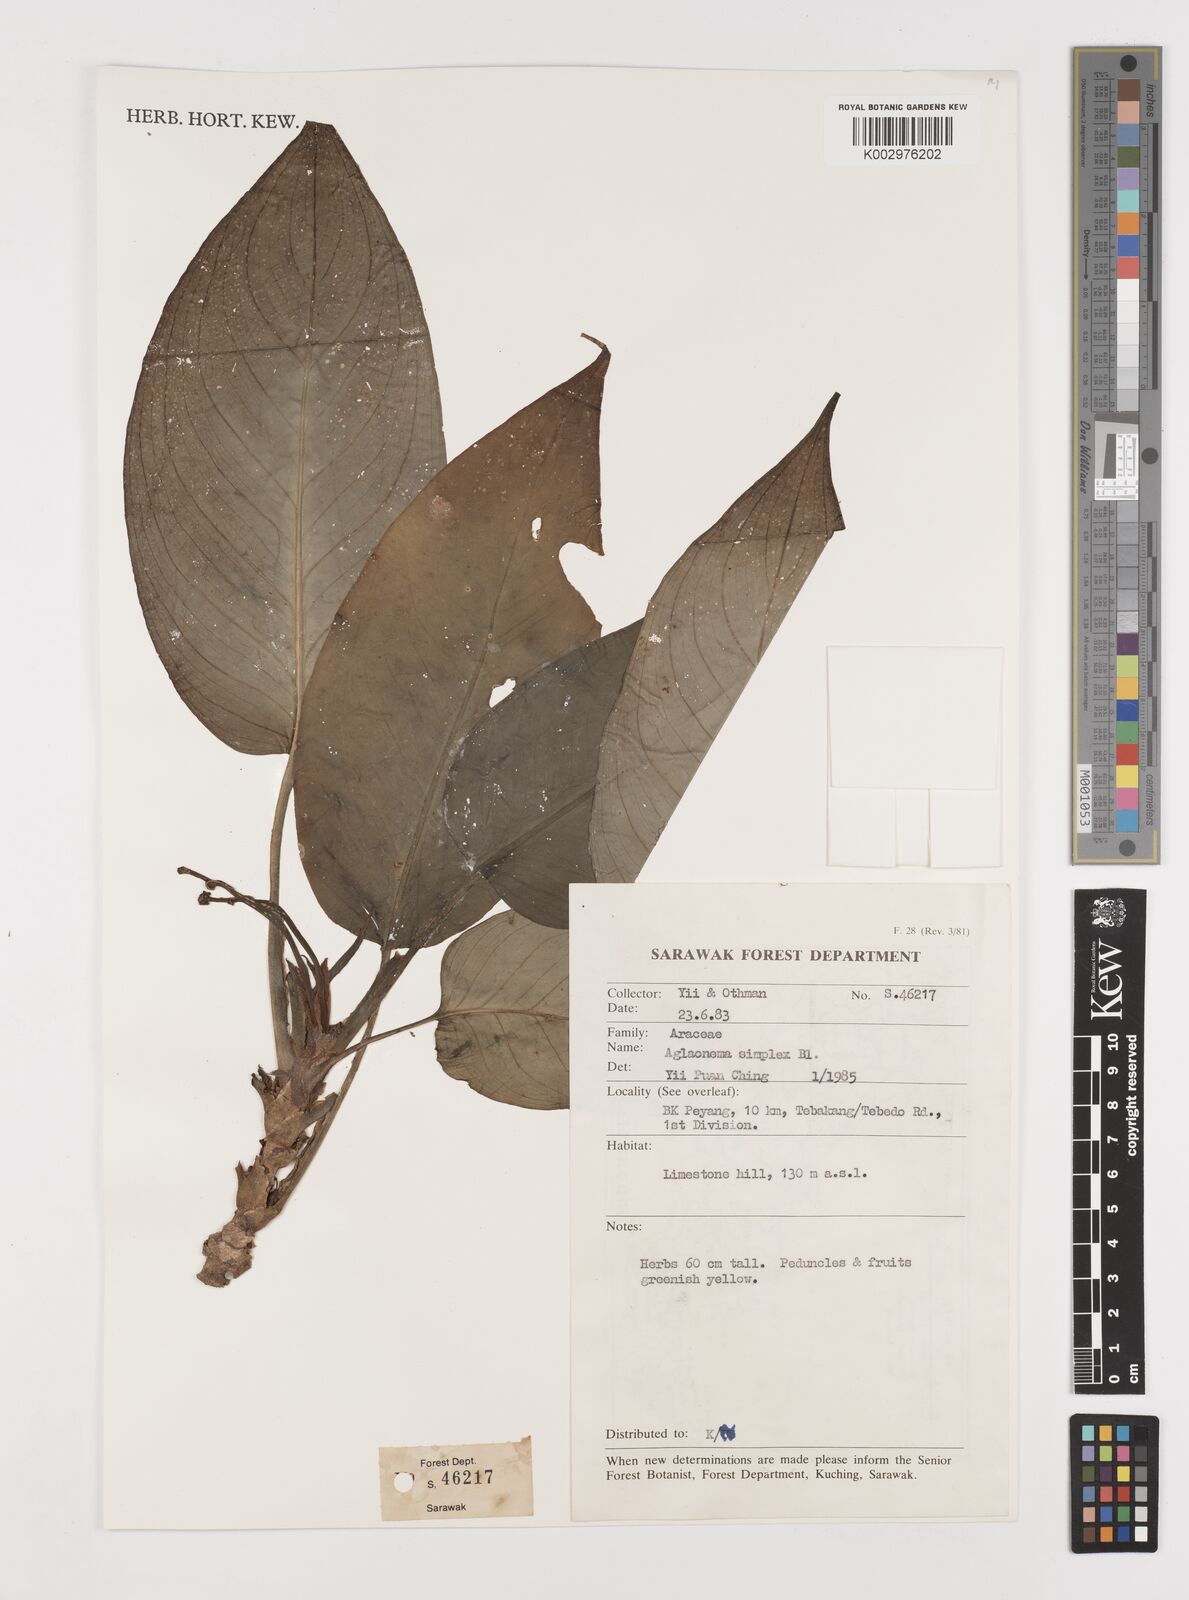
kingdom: Plantae
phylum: Tracheophyta
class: Liliopsida
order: Alismatales
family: Araceae
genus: Aglaonema
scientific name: Aglaonema simplex
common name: Malayan-sword
